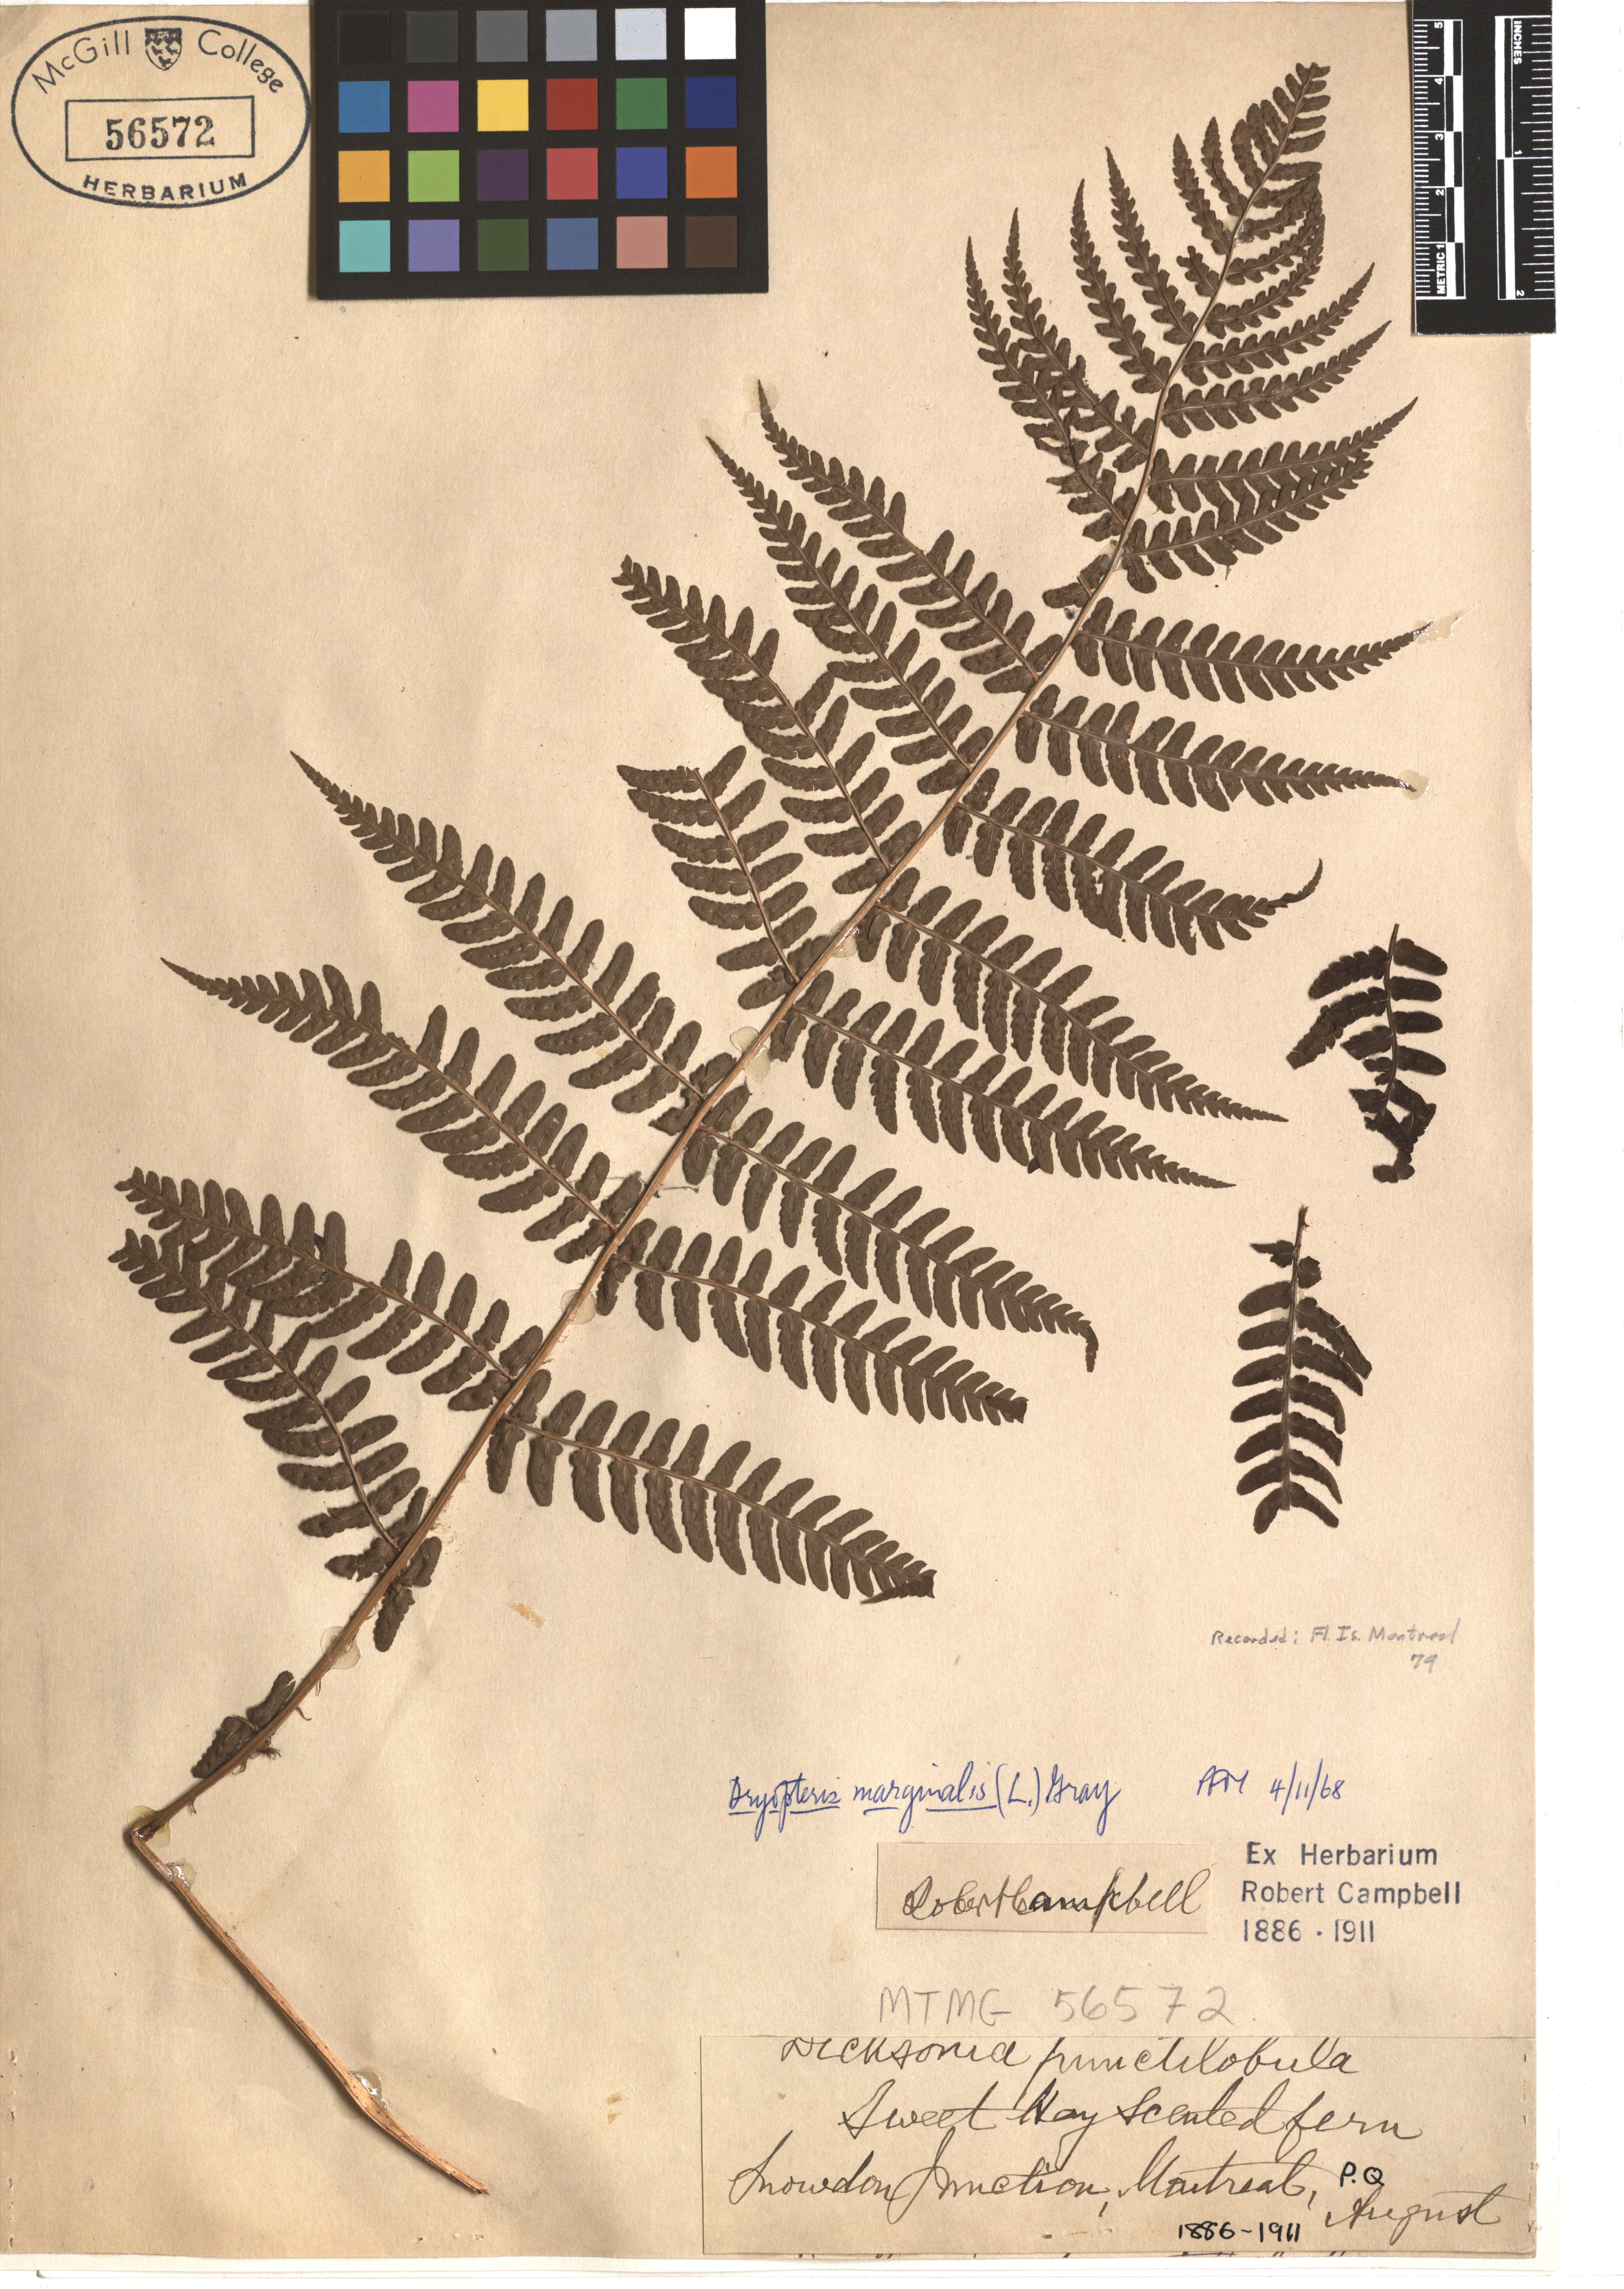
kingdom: Plantae
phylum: Tracheophyta
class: Polypodiopsida
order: Polypodiales
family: Dryopteridaceae
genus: Dryopteris
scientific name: Dryopteris marginalis
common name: Marginal wood fern
